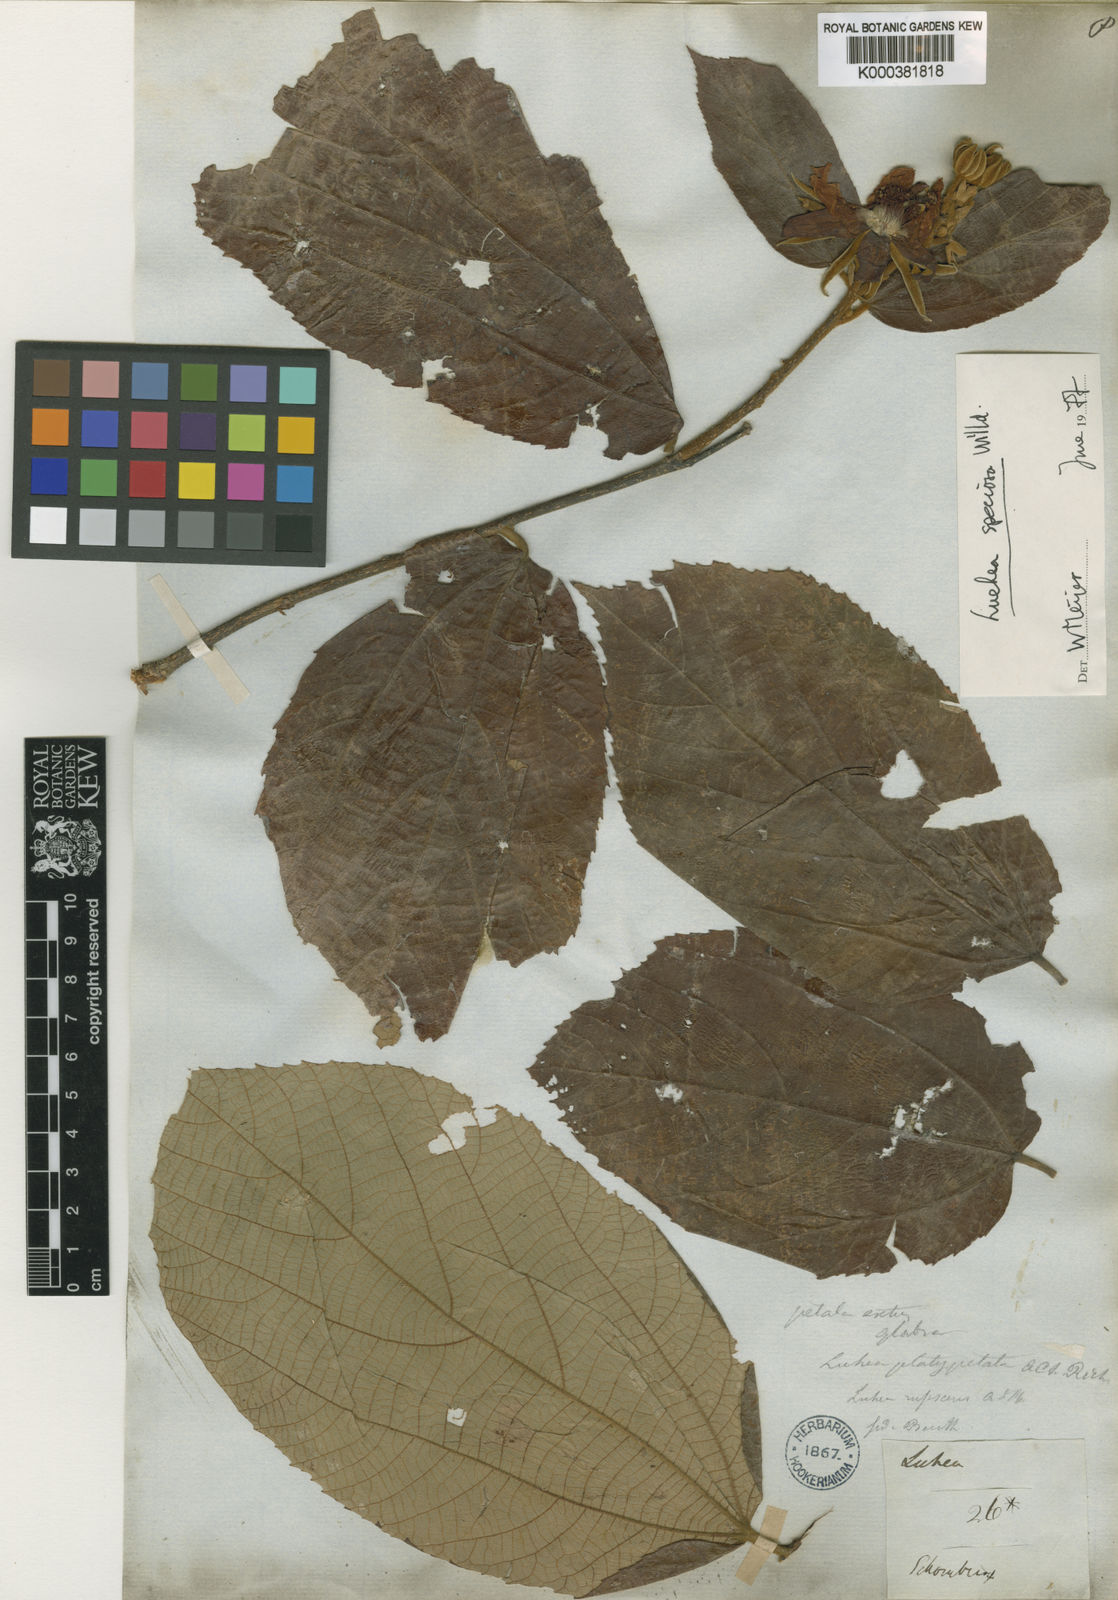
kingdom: Plantae
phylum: Tracheophyta
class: Magnoliopsida
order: Malvales
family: Malvaceae
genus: Luehea
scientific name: Luehea speciosa
